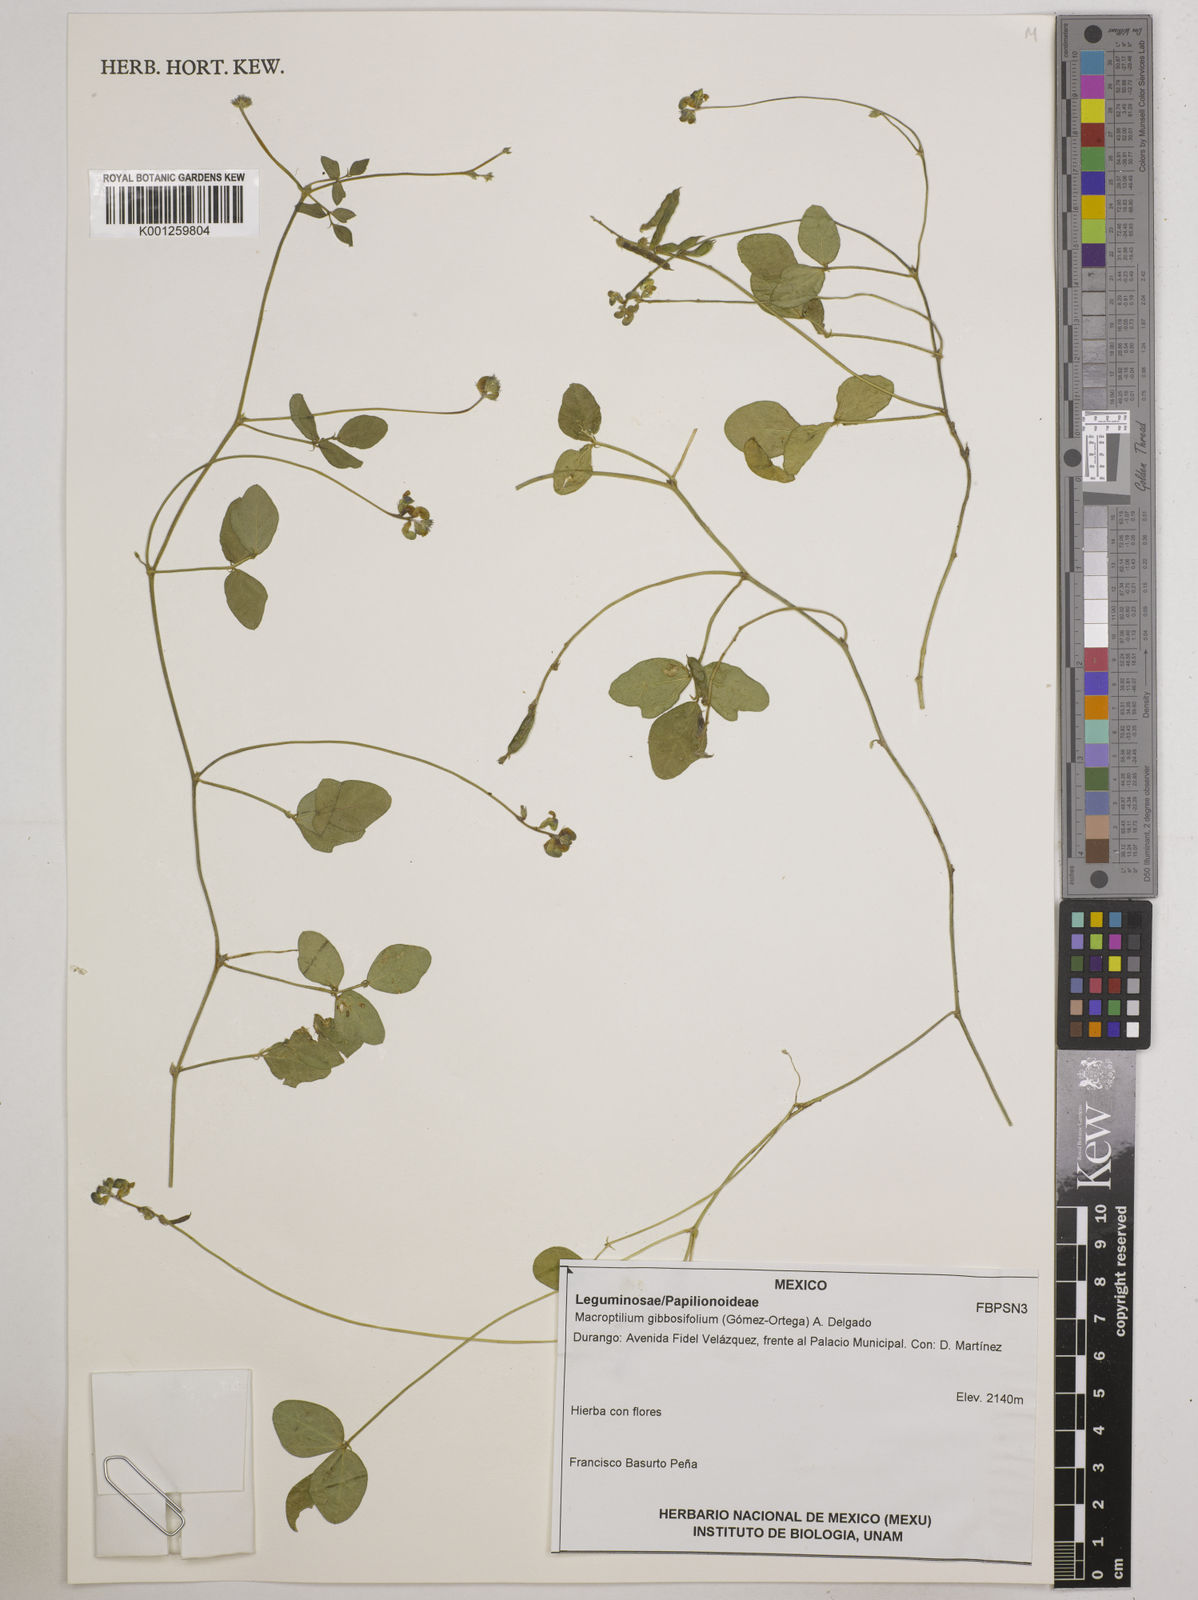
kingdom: Plantae
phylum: Tracheophyta
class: Magnoliopsida
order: Fabales
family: Fabaceae
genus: Macroptilium
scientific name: Macroptilium gibbosifolium
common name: Variableleaf bushbean
